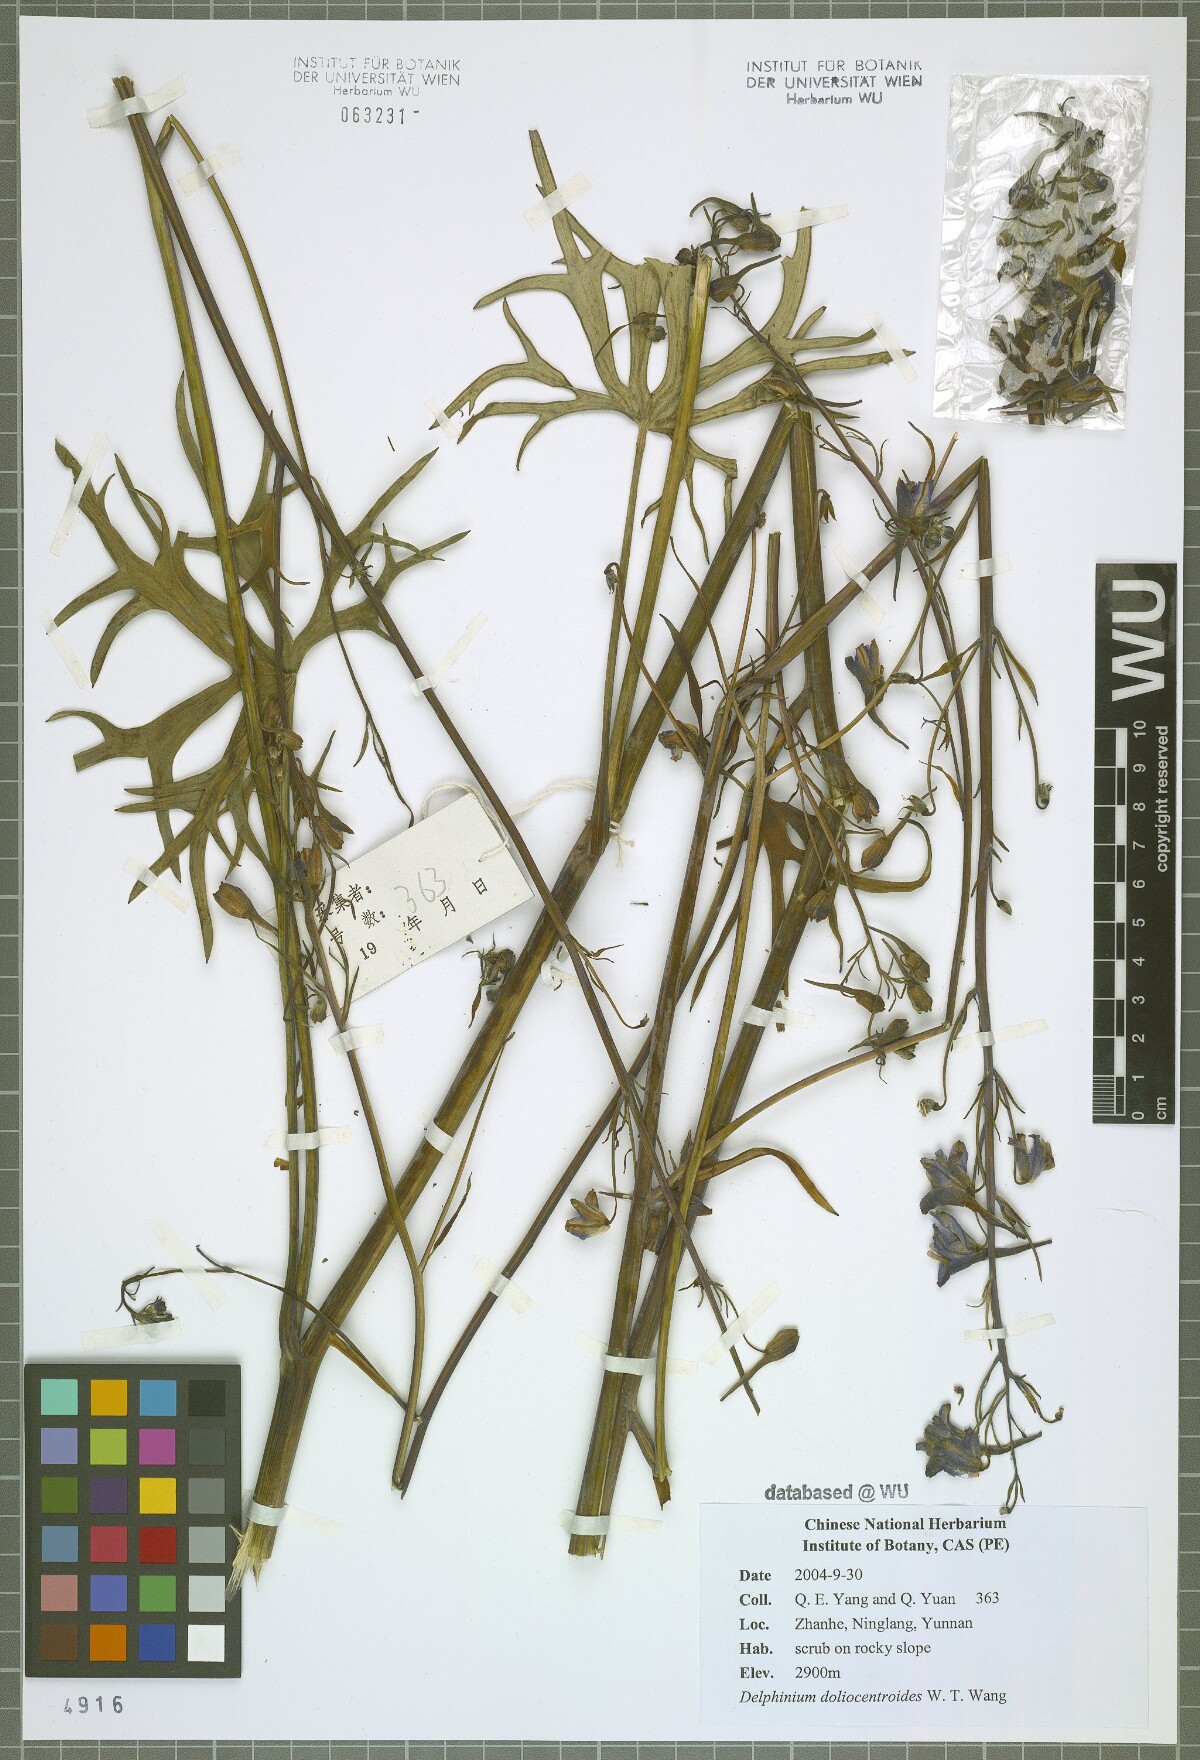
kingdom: Plantae
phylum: Tracheophyta
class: Magnoliopsida
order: Ranunculales
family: Ranunculaceae
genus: Delphinium
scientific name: Delphinium dolichocentroides
